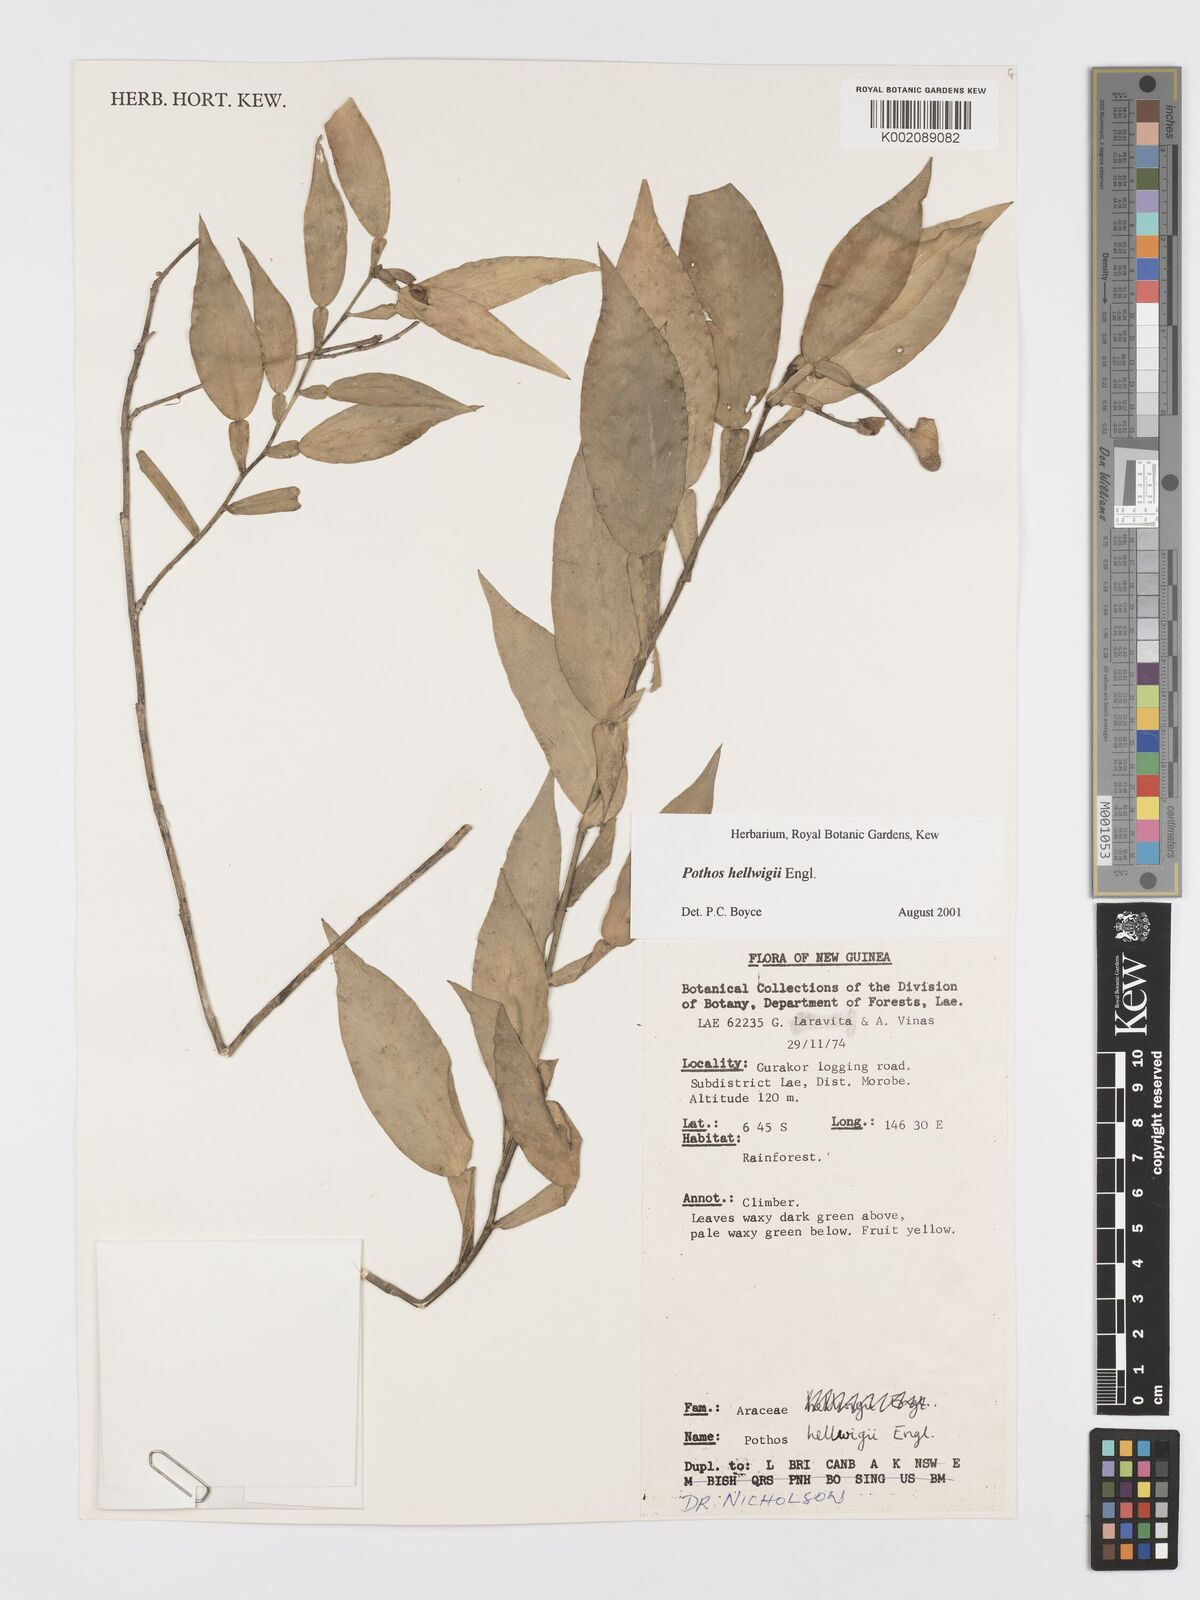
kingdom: Plantae
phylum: Tracheophyta
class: Liliopsida
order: Alismatales
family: Araceae
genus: Pothos
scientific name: Pothos hellwigii
